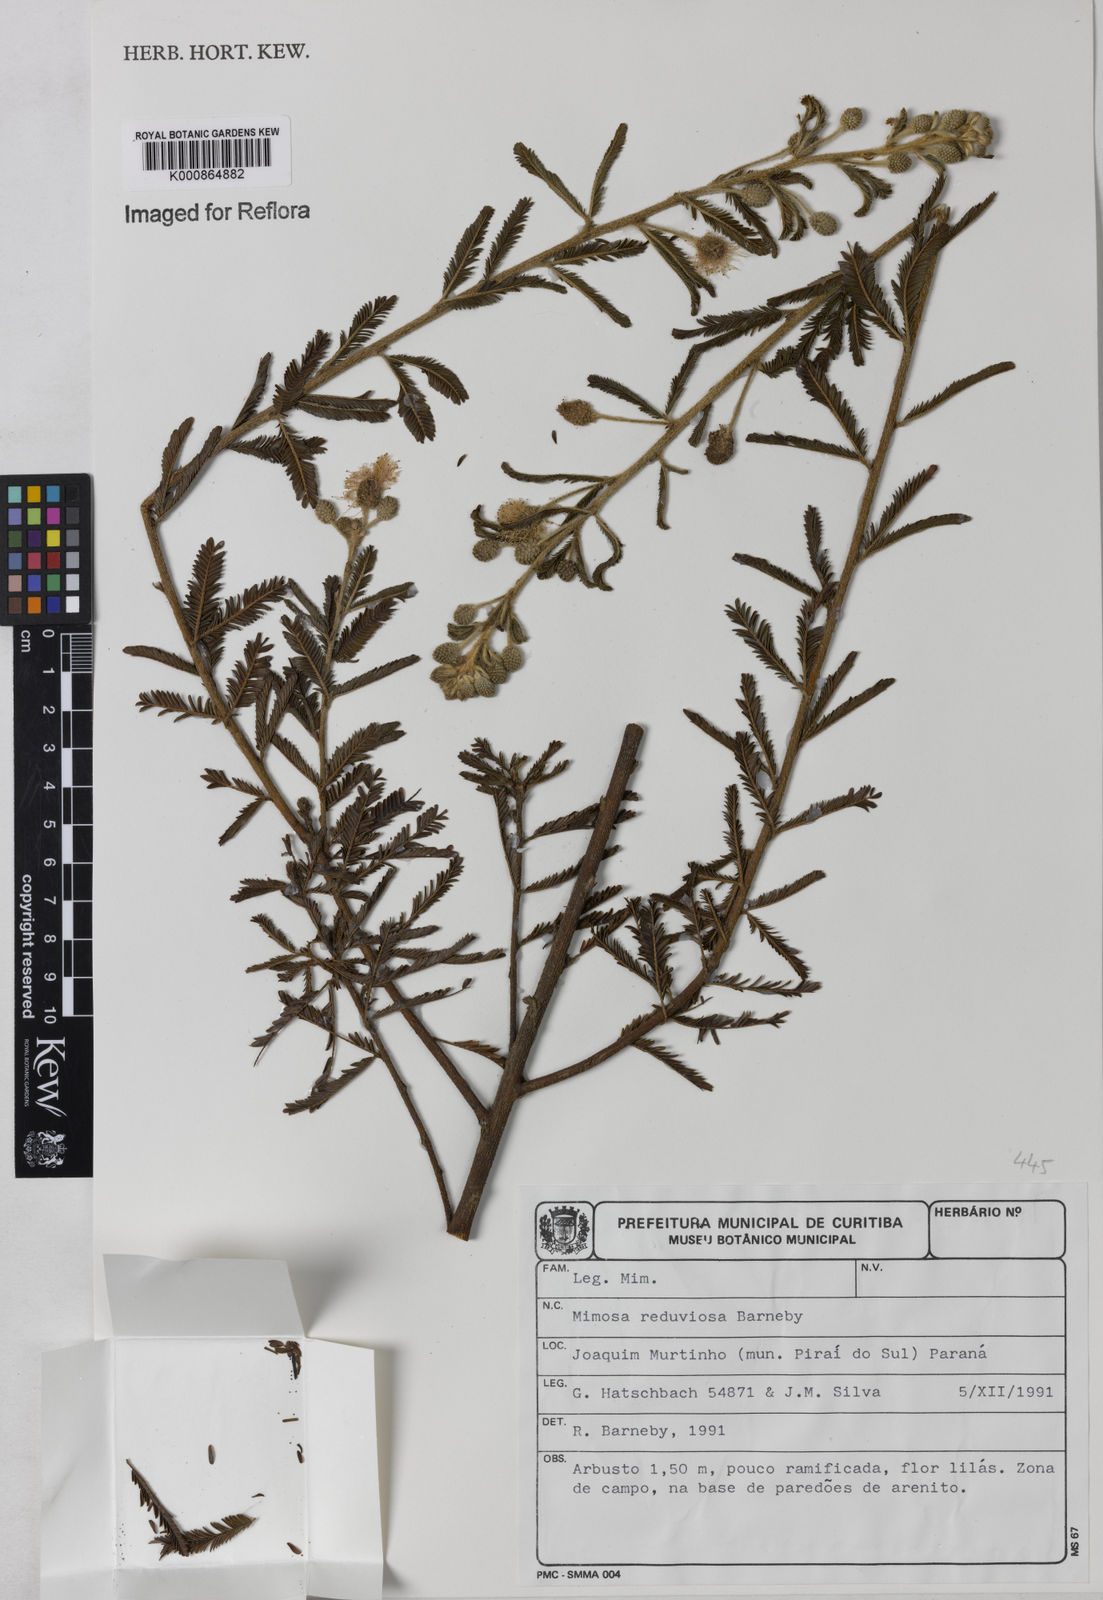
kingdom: Plantae
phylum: Tracheophyta
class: Magnoliopsida
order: Fabales
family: Fabaceae
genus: Mimosa
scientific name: Mimosa
